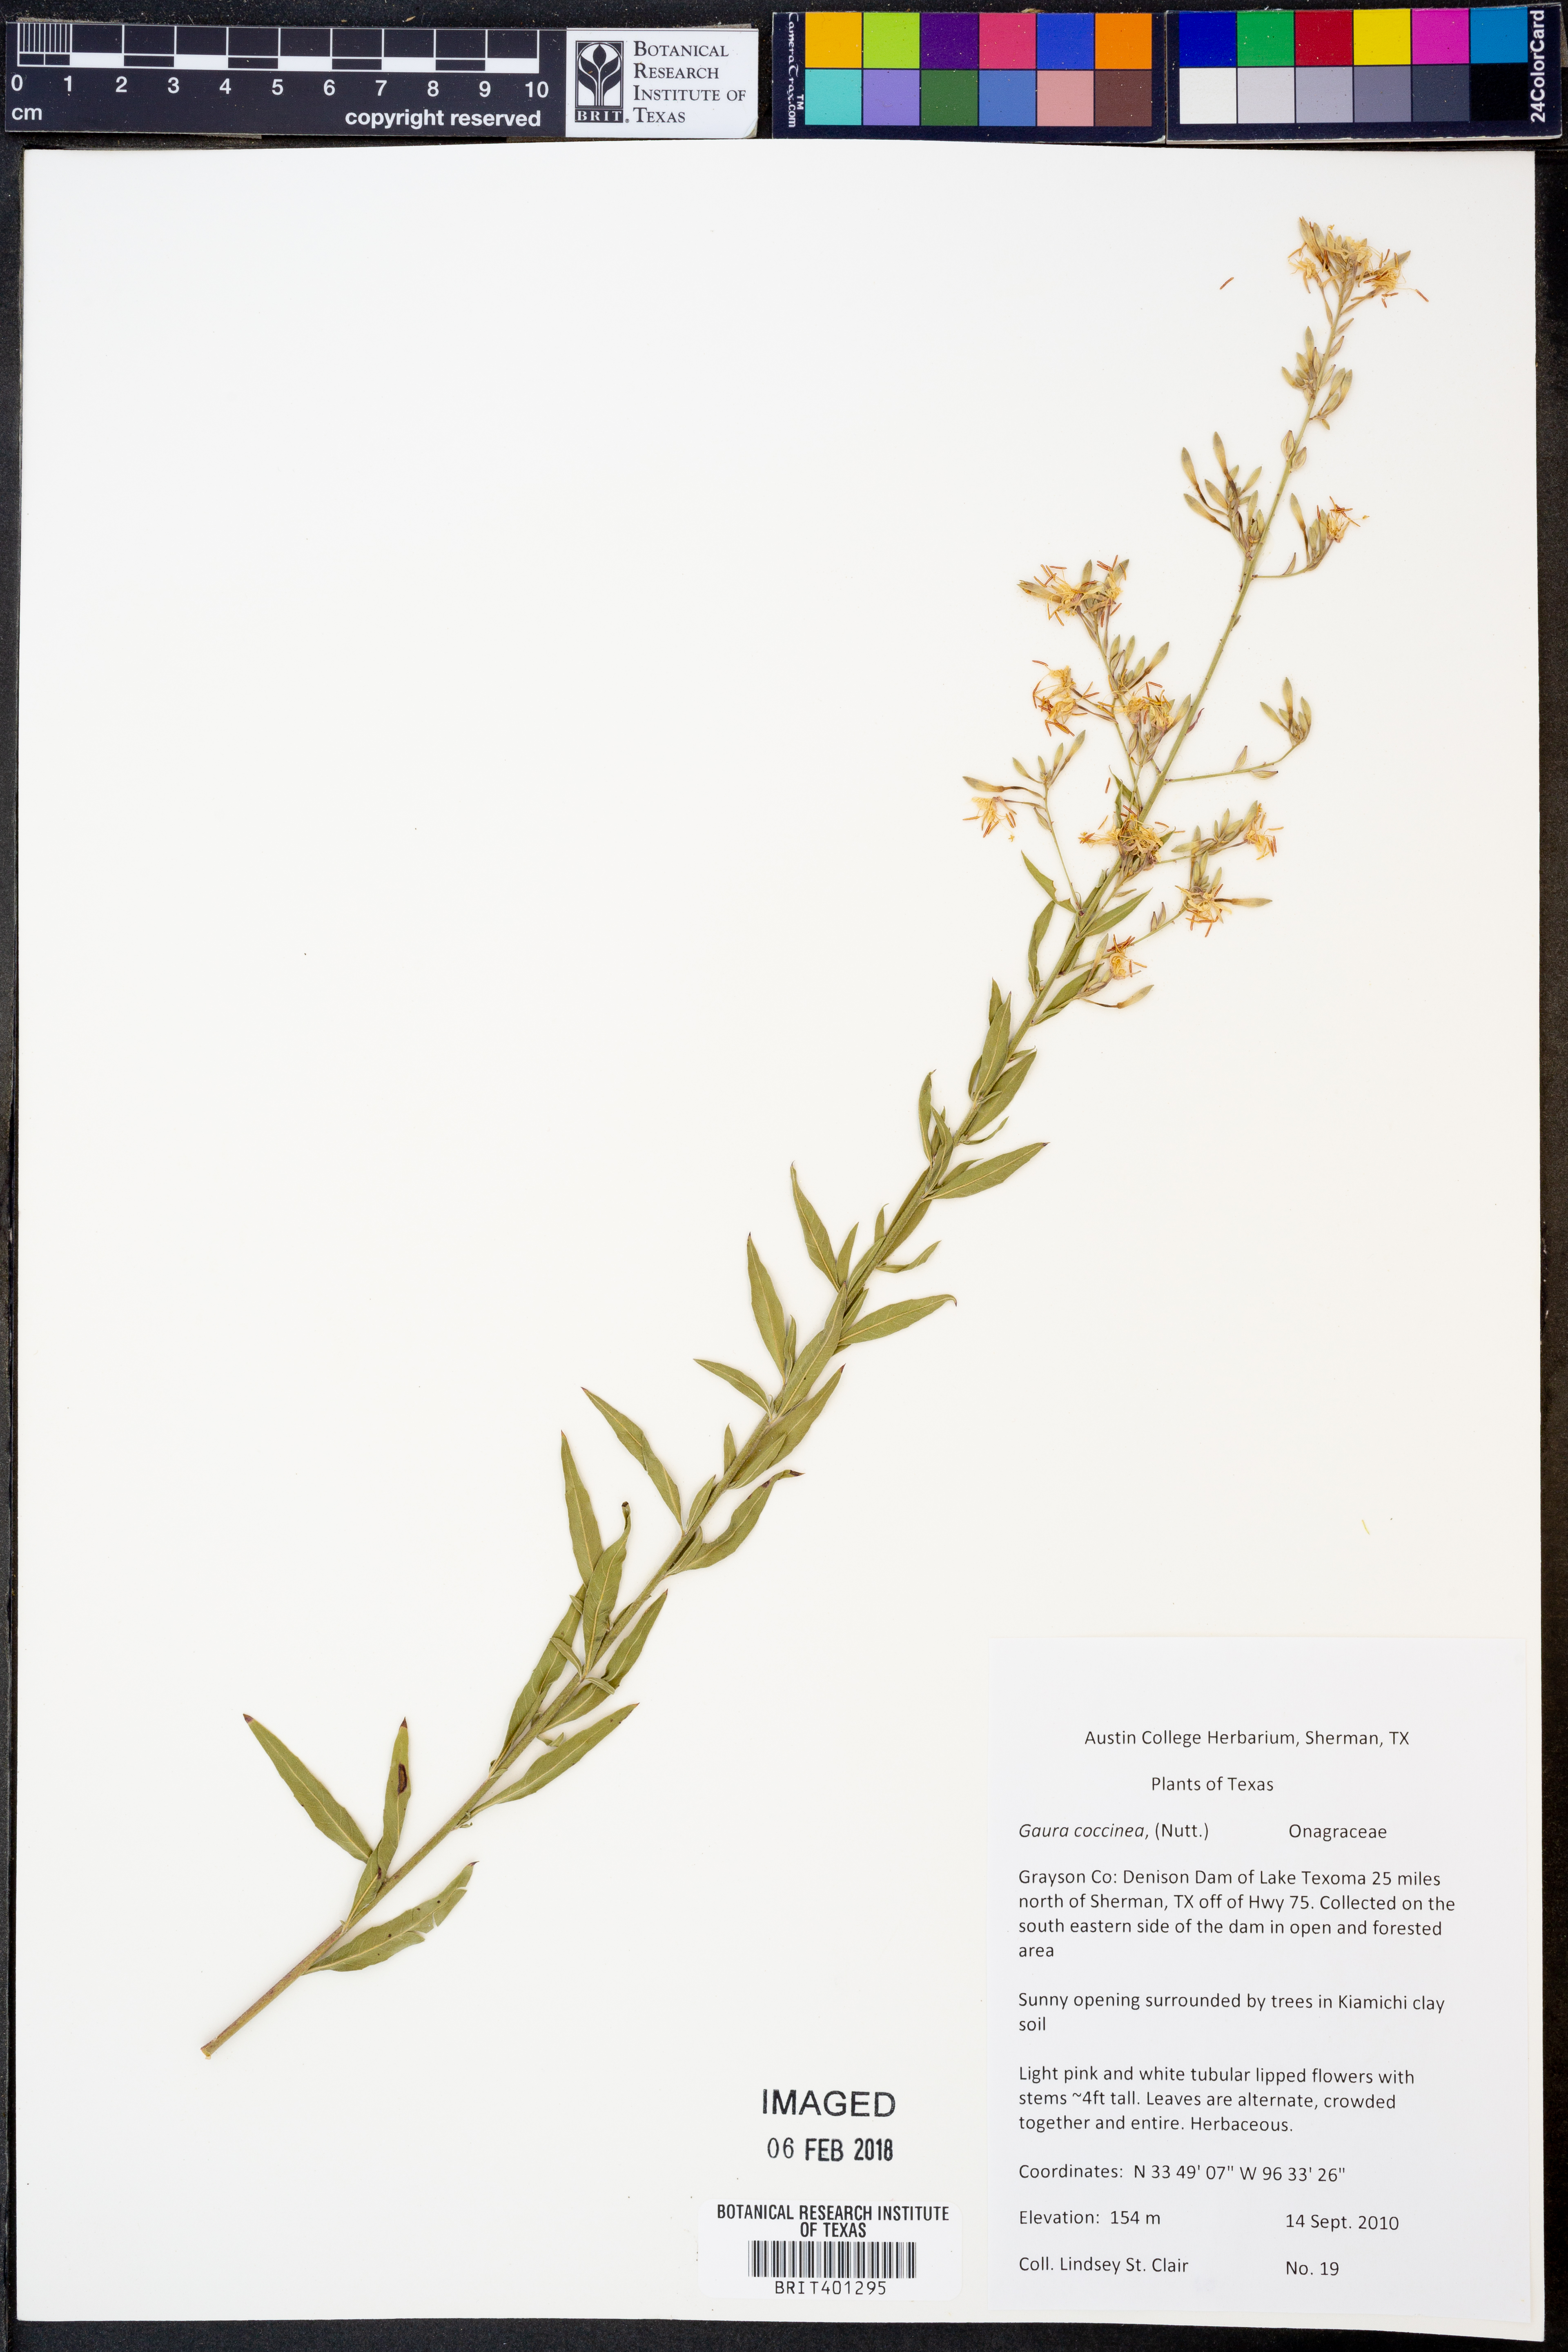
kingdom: Plantae
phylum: Tracheophyta
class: Magnoliopsida
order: Myrtales
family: Onagraceae
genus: Oenothera
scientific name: Oenothera suffrutescens
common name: Scarlet beeblossom
